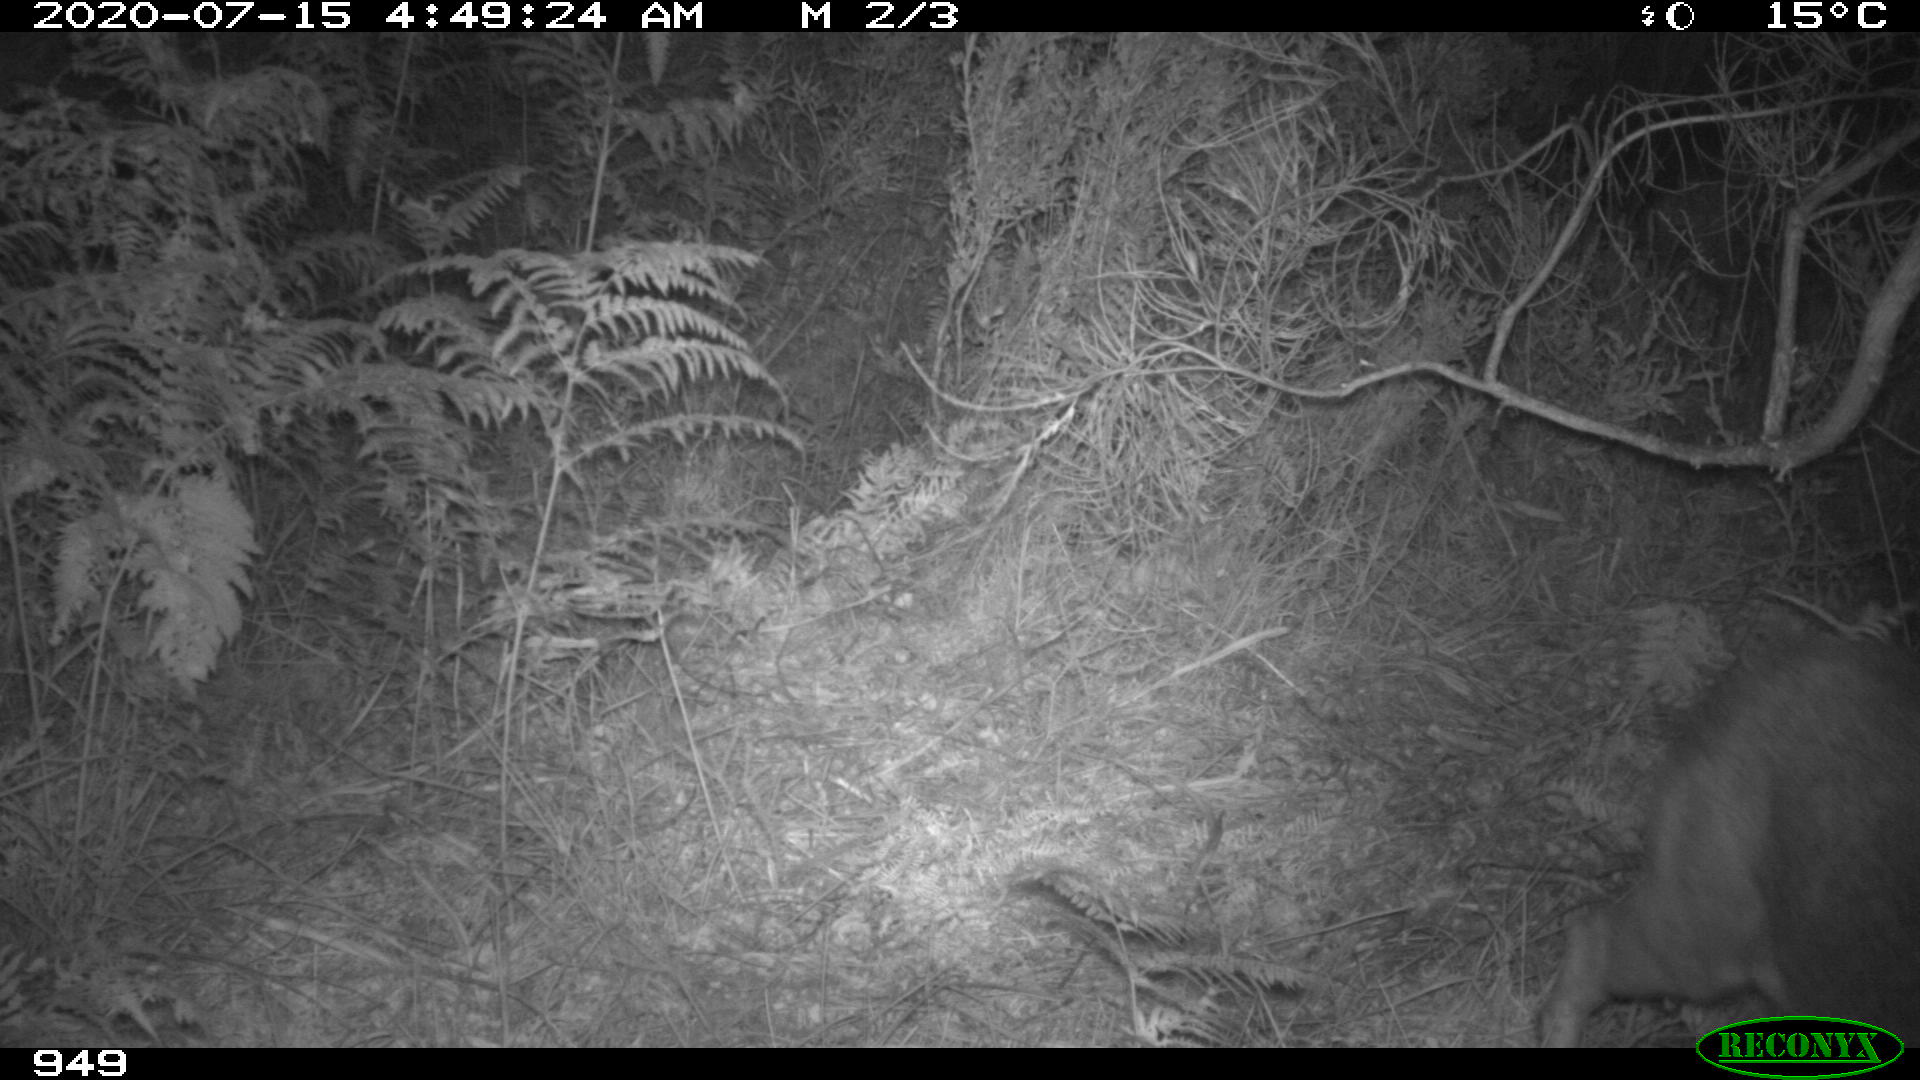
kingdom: Animalia
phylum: Chordata
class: Mammalia
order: Artiodactyla
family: Cervidae
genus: Capreolus
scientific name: Capreolus capreolus
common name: Western roe deer
